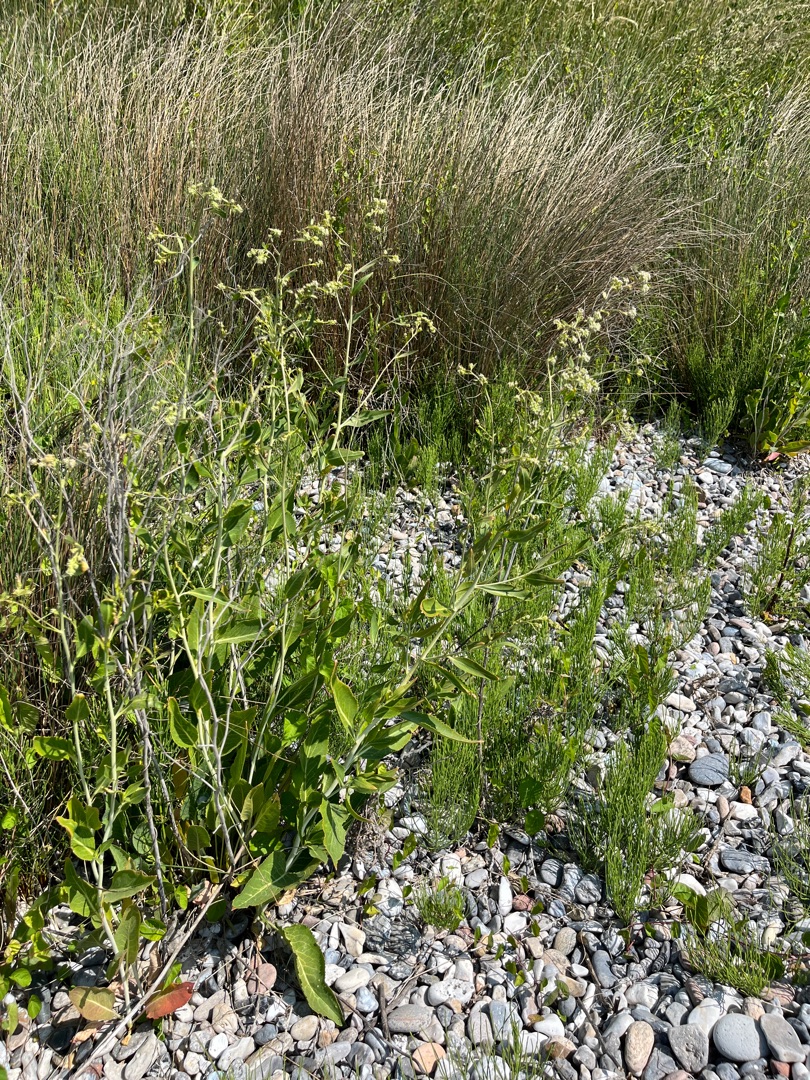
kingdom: Plantae
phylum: Tracheophyta
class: Magnoliopsida
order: Brassicales
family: Brassicaceae
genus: Lepidium
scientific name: Lepidium latifolium
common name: Strand-karse
